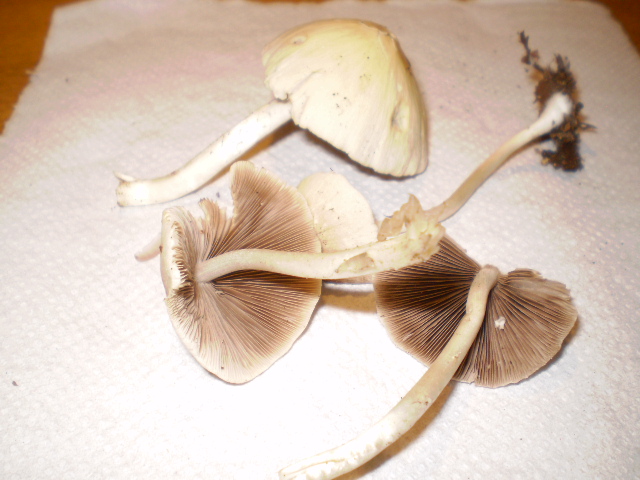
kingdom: Fungi
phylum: Basidiomycota
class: Agaricomycetes
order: Agaricales
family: Psathyrellaceae
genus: Candolleomyces
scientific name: Candolleomyces candolleanus
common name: Candolles mørkhat
